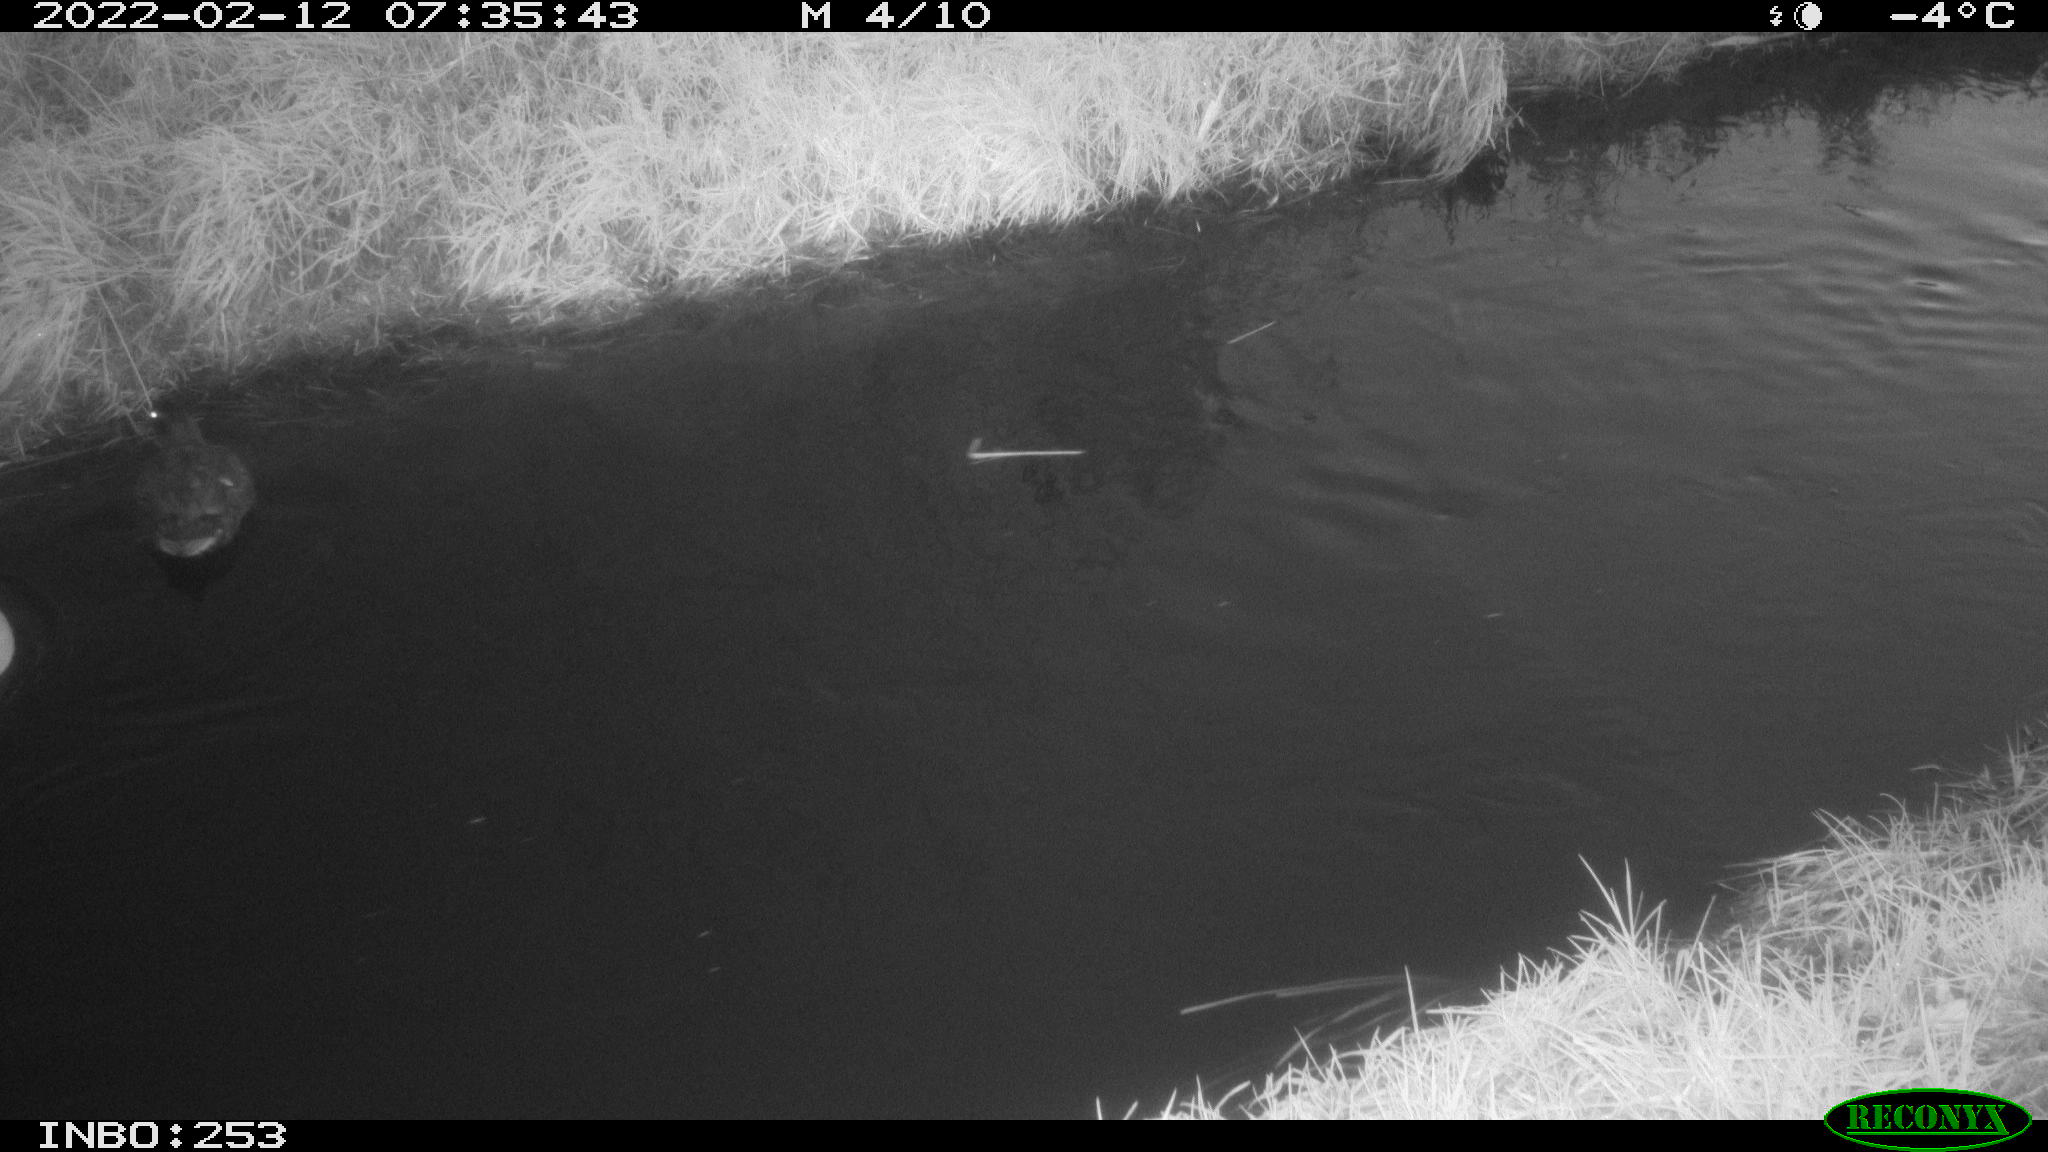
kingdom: Animalia
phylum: Chordata
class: Aves
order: Anseriformes
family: Anatidae
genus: Anas
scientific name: Anas platyrhynchos
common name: Mallard
